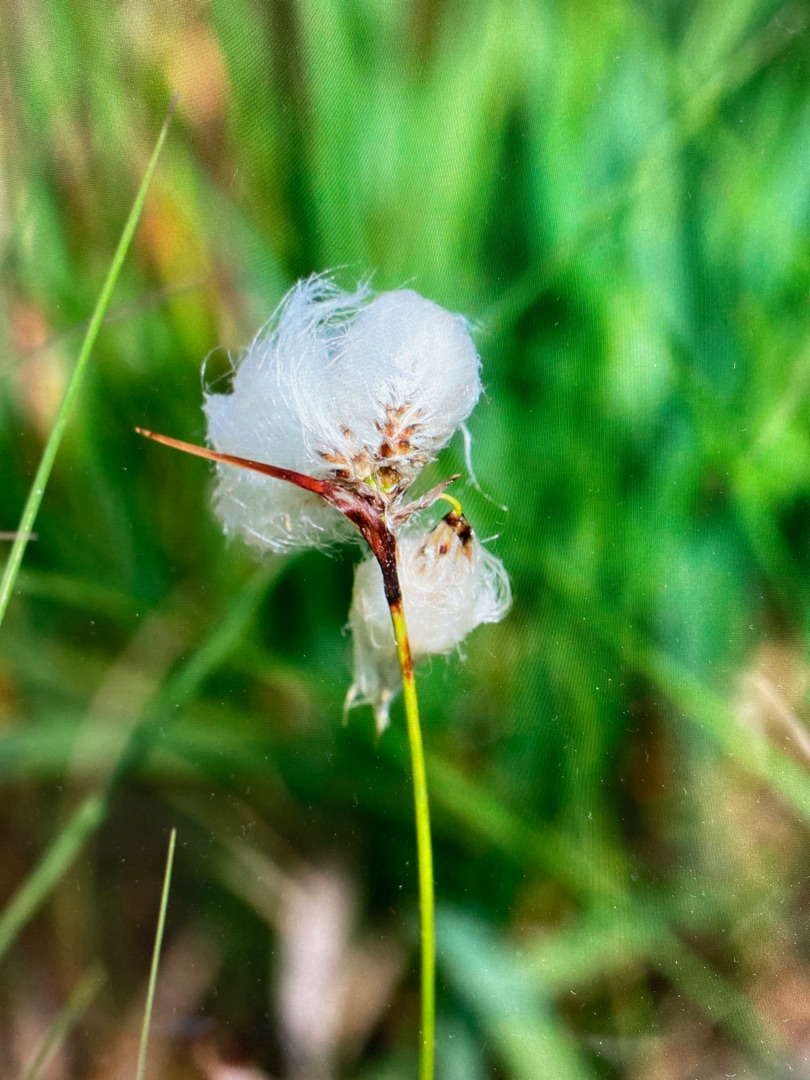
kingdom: Plantae
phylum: Tracheophyta
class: Liliopsida
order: Poales
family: Cyperaceae
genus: Eriophorum
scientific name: Eriophorum angustifolium
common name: Smalbladet kæruld
